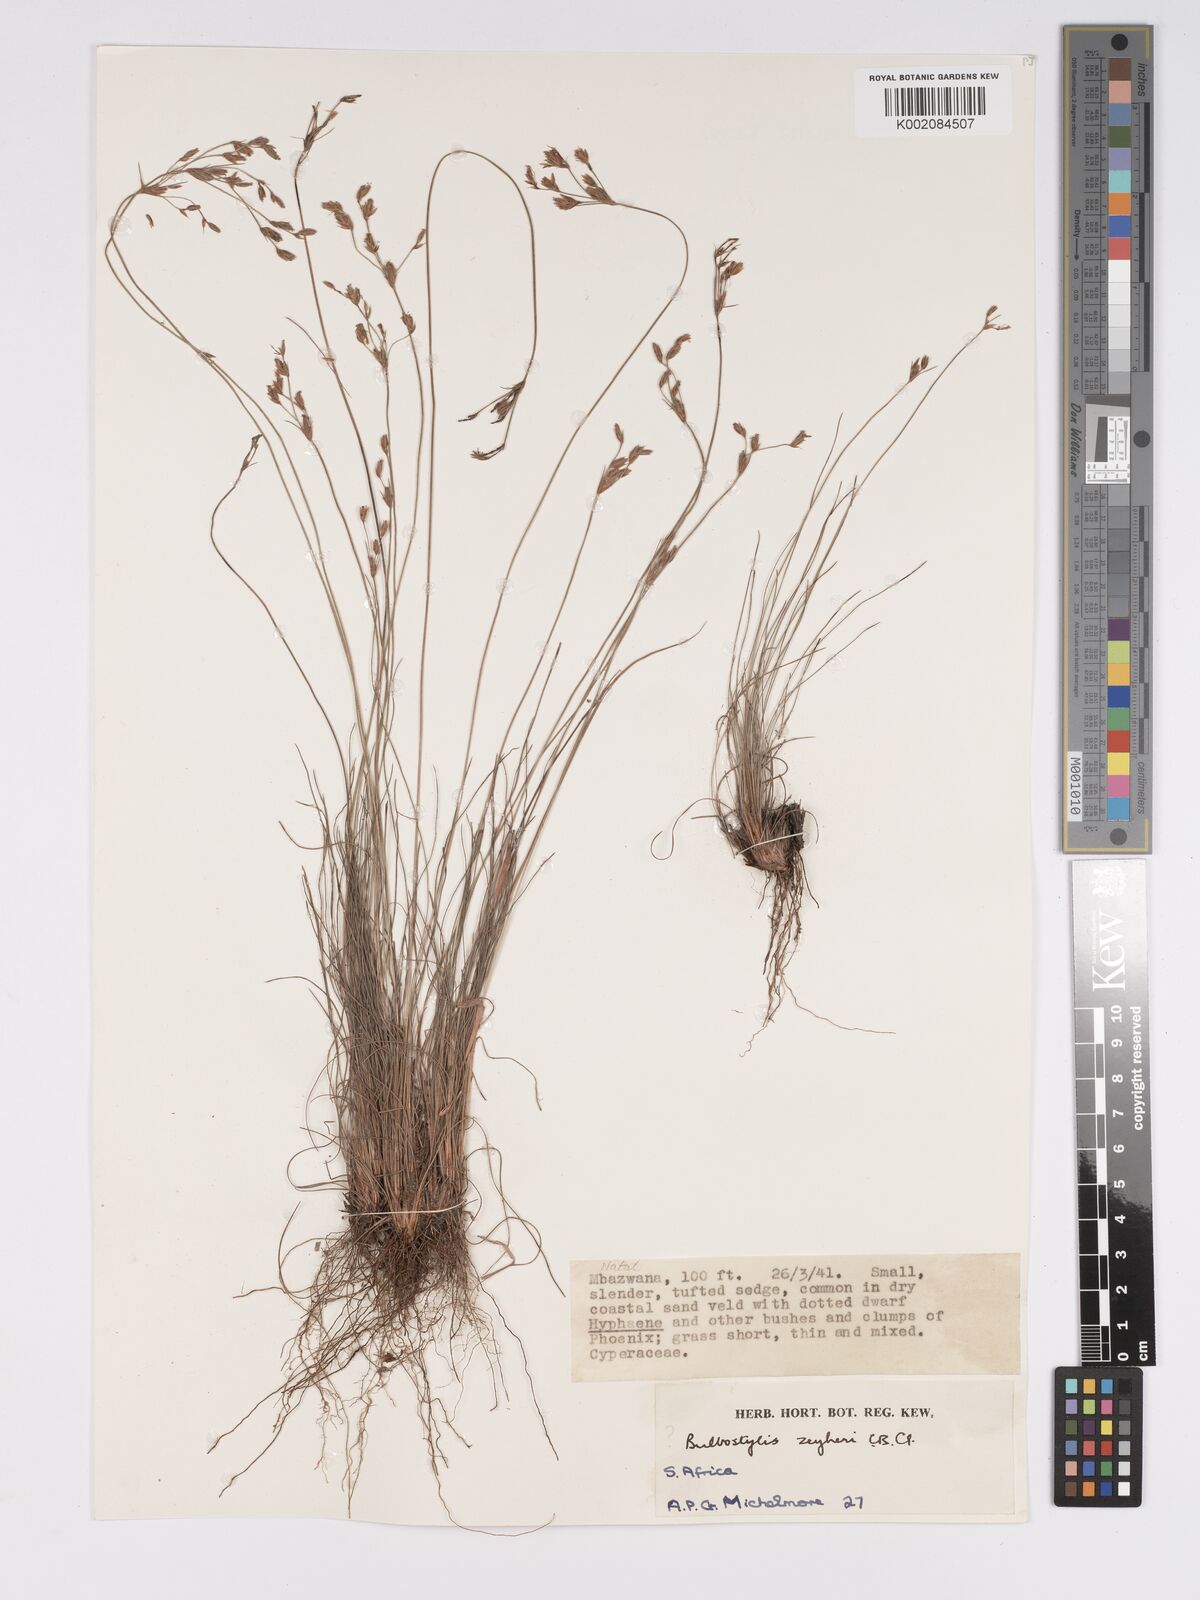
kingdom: Plantae
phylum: Tracheophyta
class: Liliopsida
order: Poales
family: Cyperaceae
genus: Bulbostylis
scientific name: Bulbostylis contexta
